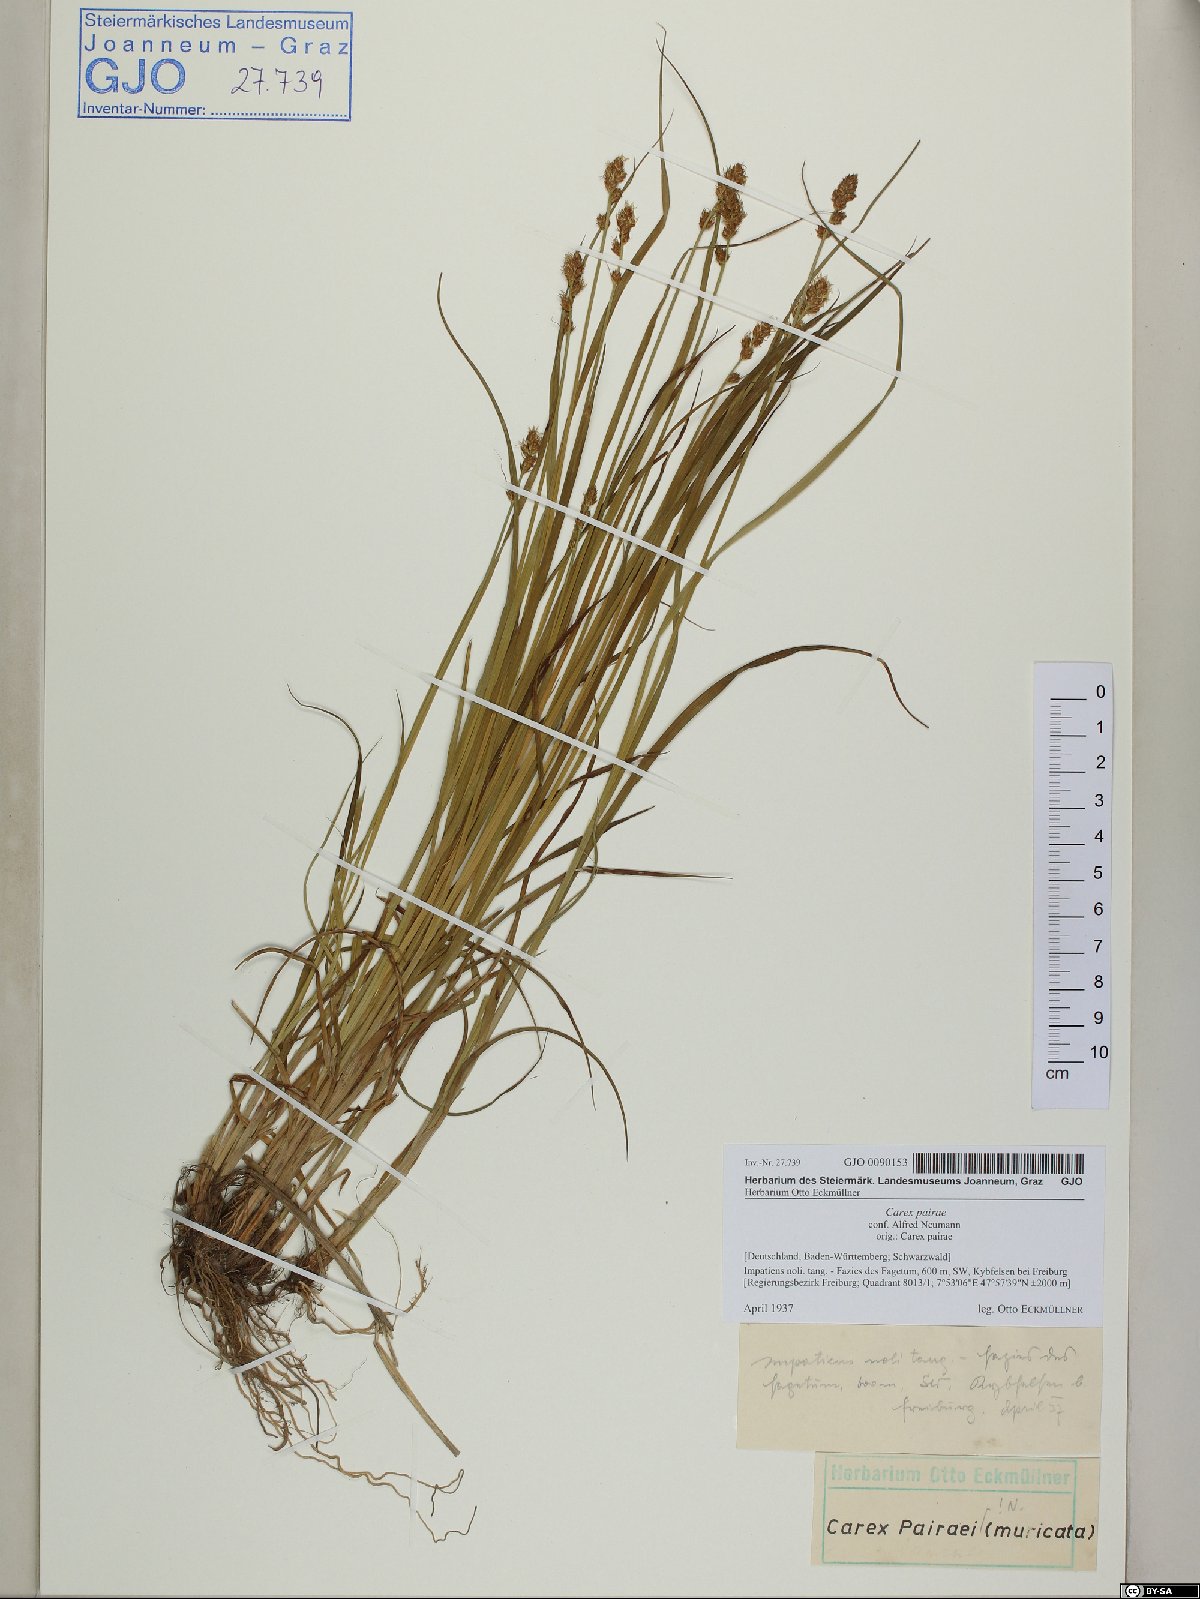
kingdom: Plantae
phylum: Tracheophyta
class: Liliopsida
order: Poales
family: Cyperaceae
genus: Carex
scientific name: Carex pairae
